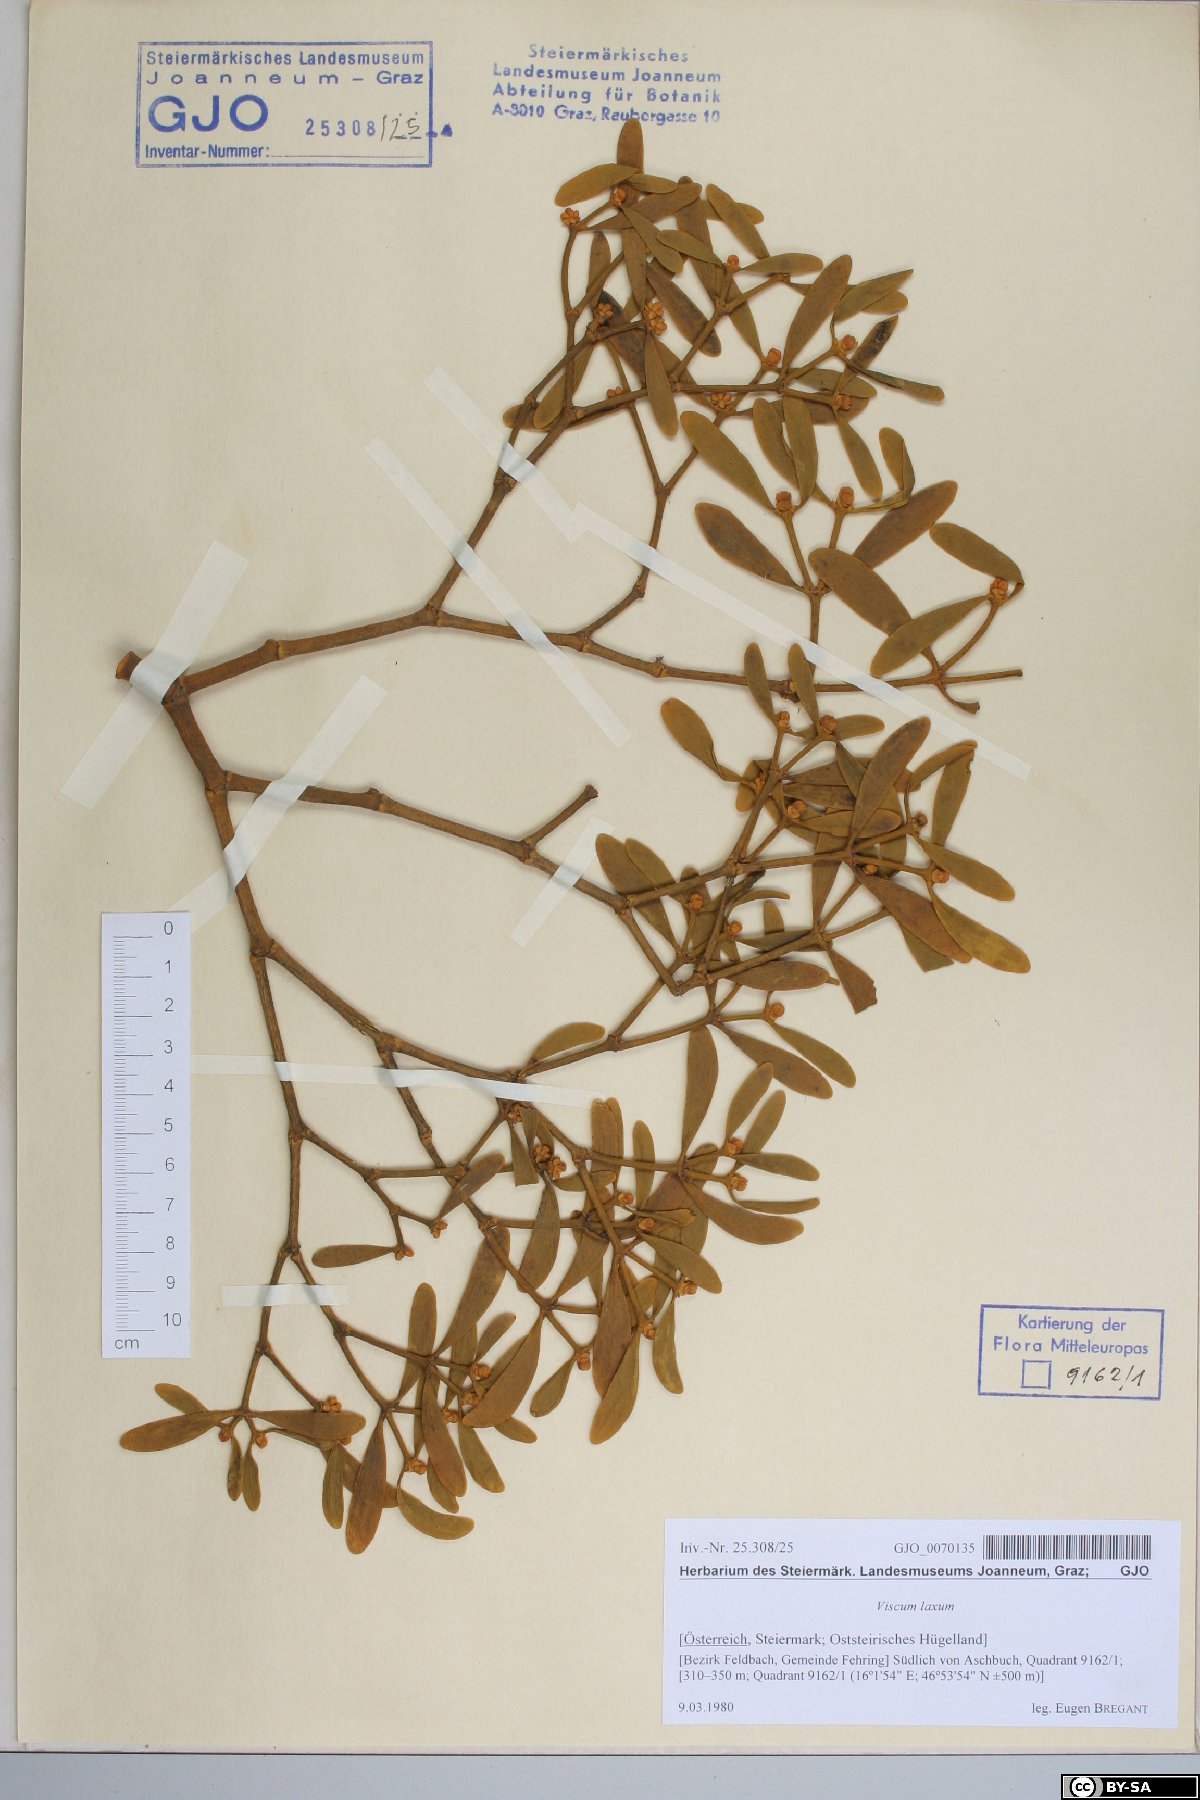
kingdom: Plantae
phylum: Tracheophyta
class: Magnoliopsida
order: Santalales
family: Viscaceae
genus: Viscum
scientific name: Viscum laxum
